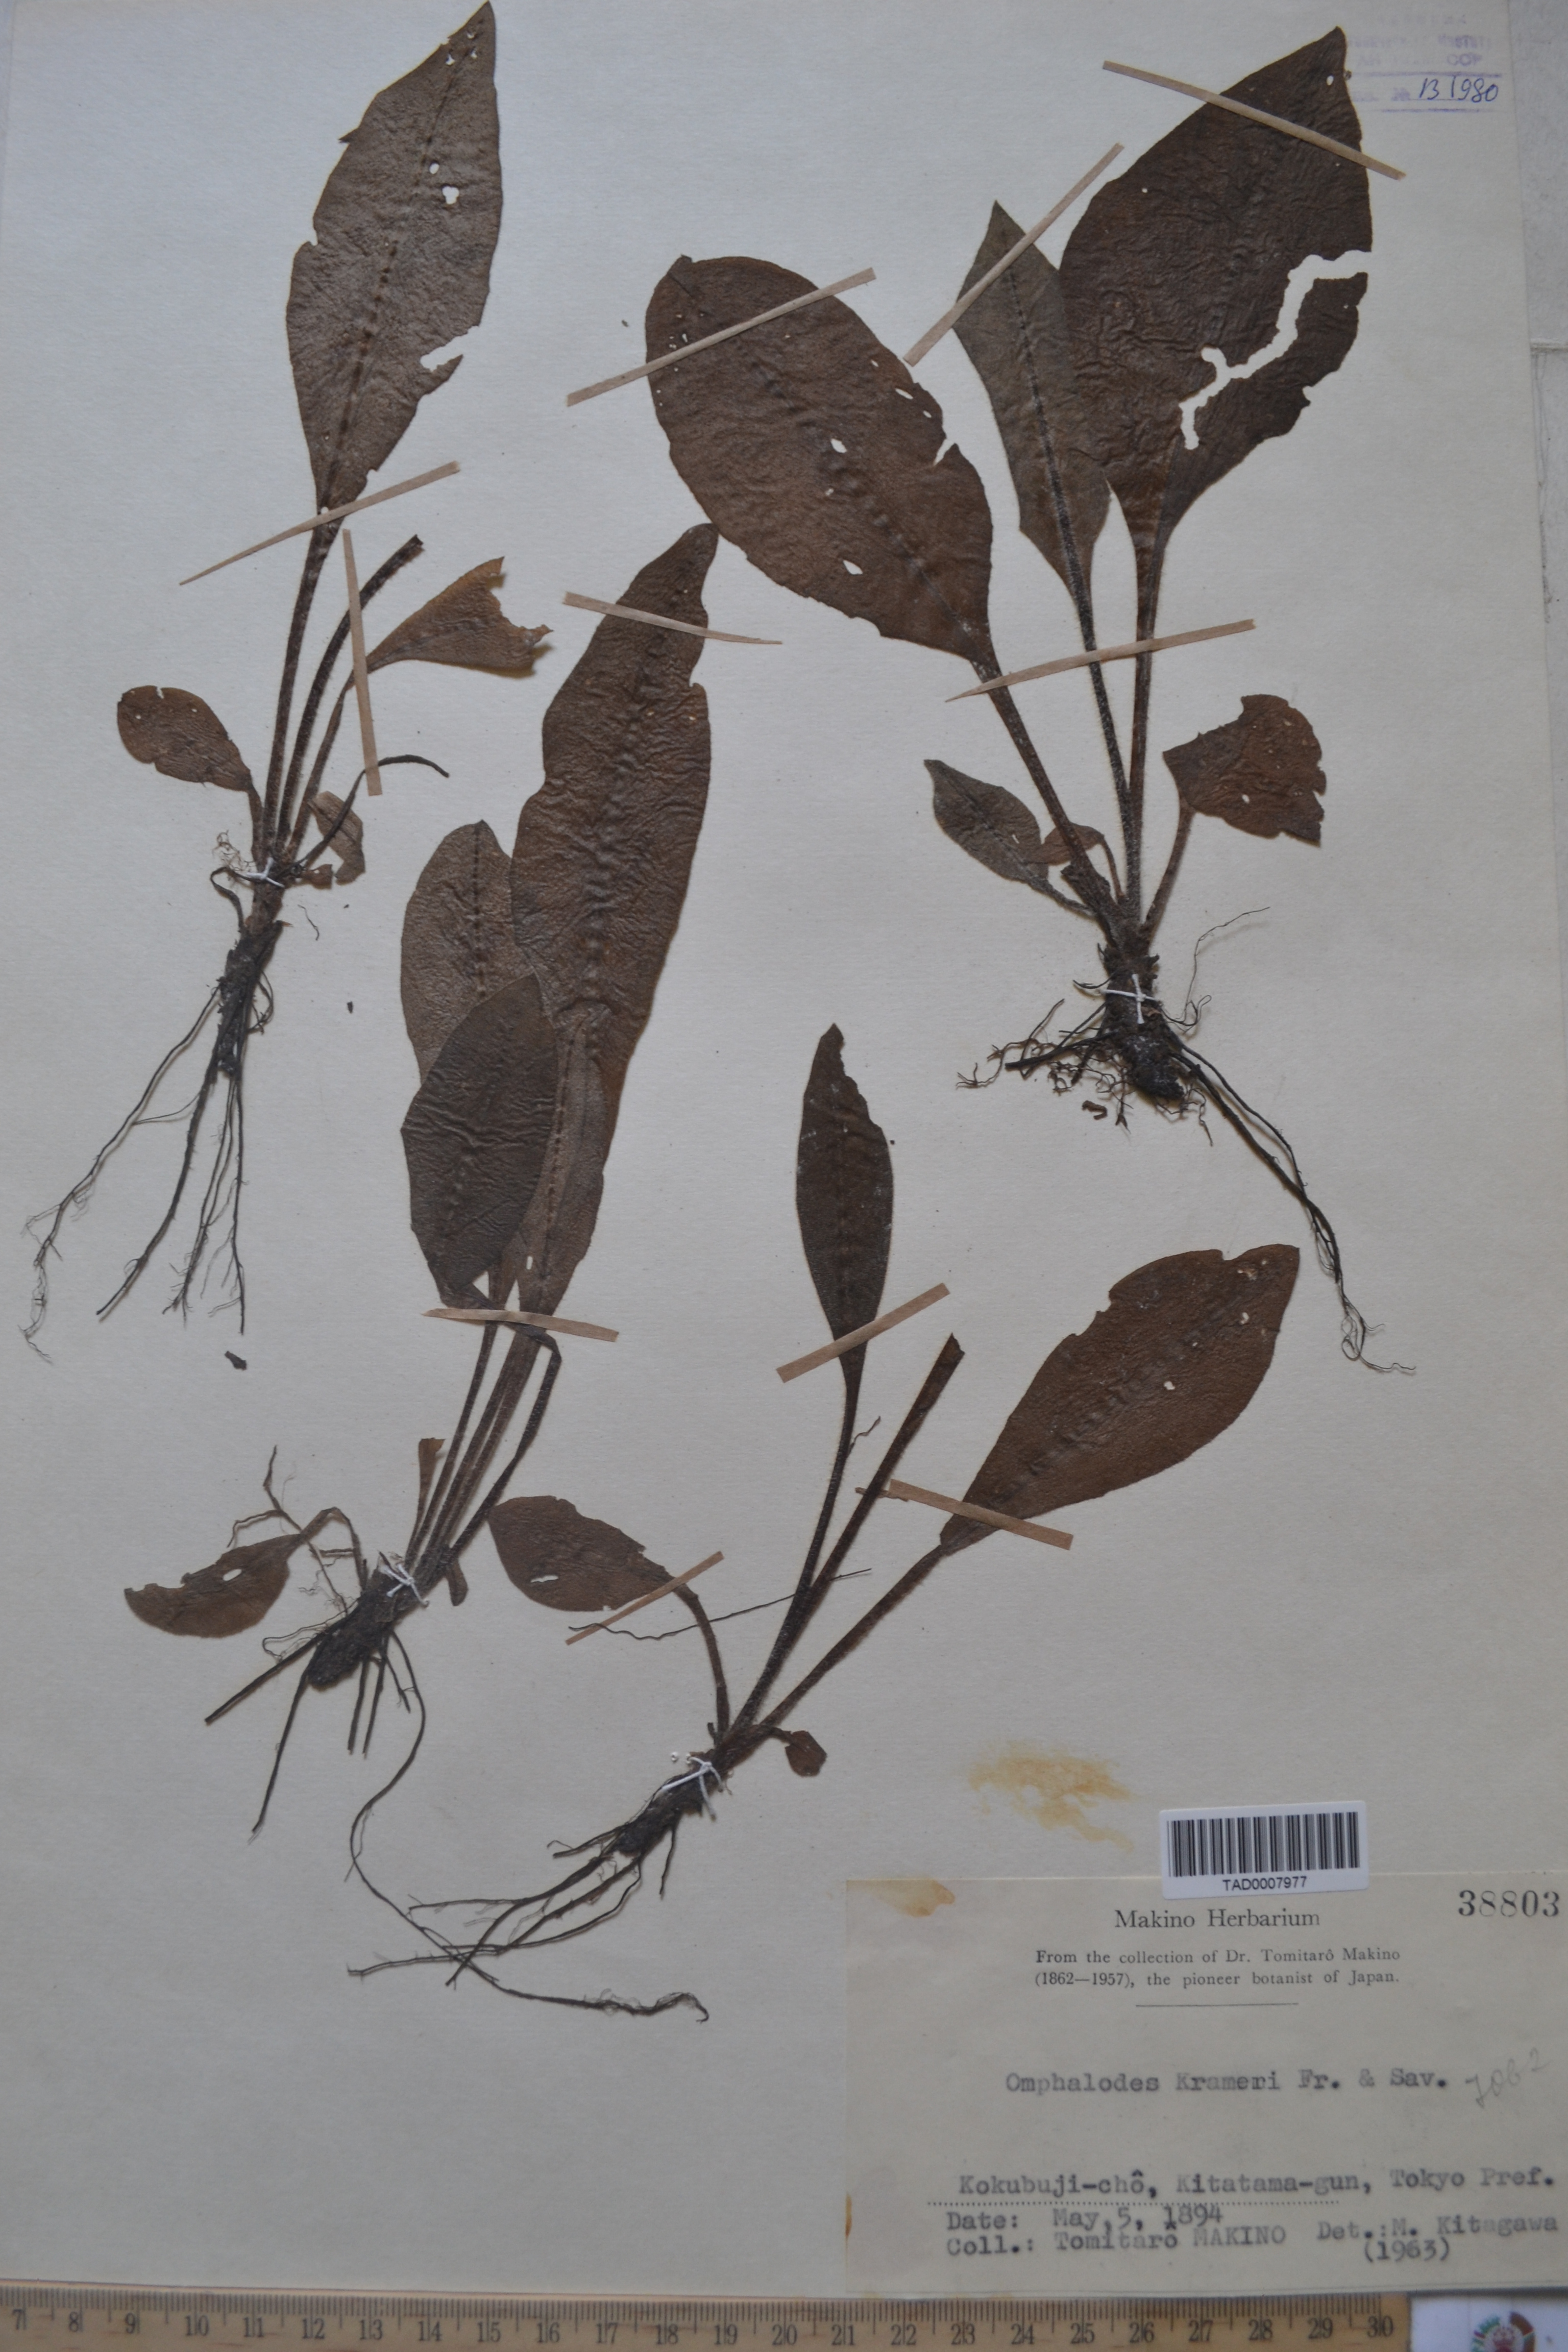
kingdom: Plantae
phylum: Tracheophyta
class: Magnoliopsida
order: Boraginales
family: Boraginaceae
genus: Nihon
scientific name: Nihon krameri
